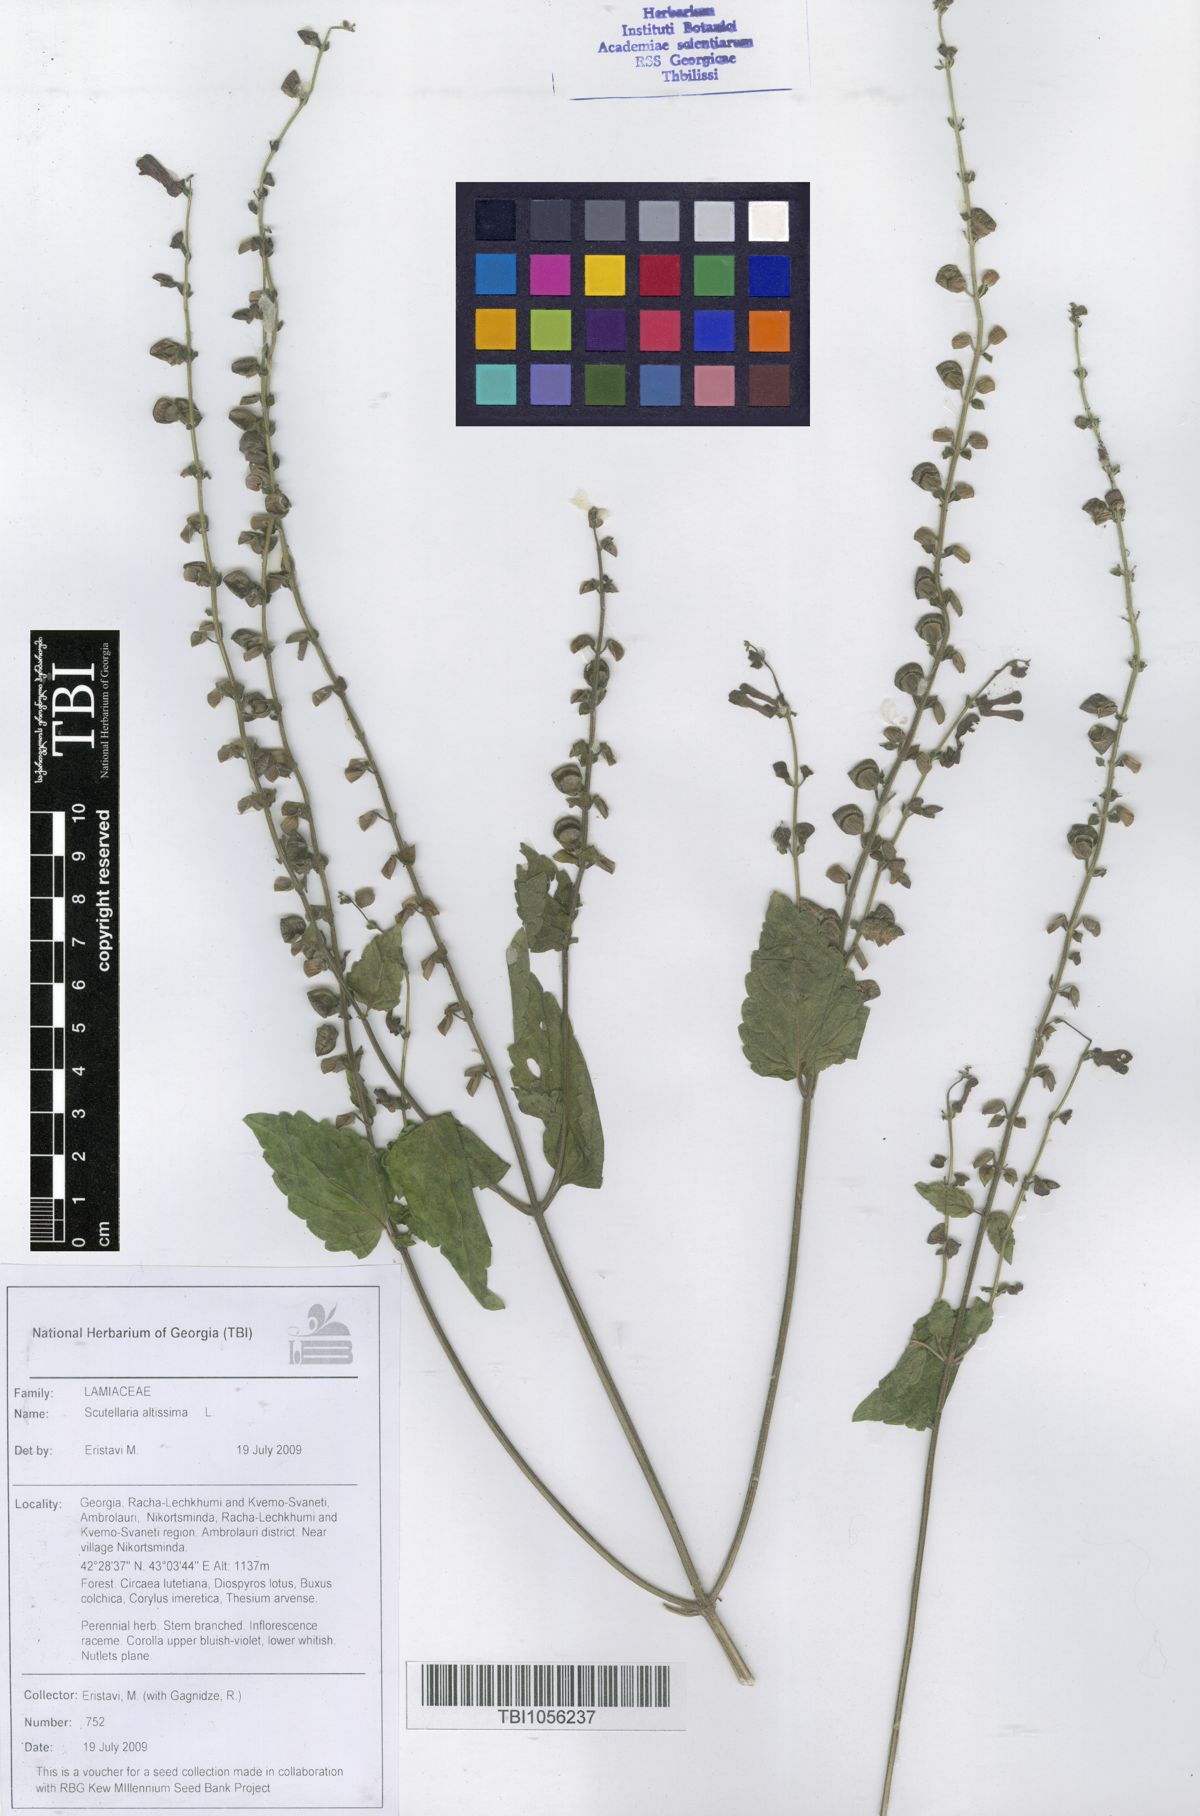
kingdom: Plantae
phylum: Tracheophyta
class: Magnoliopsida
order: Lamiales
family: Lamiaceae
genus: Scutellaria
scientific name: Scutellaria altissima
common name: Somerset skullcap
